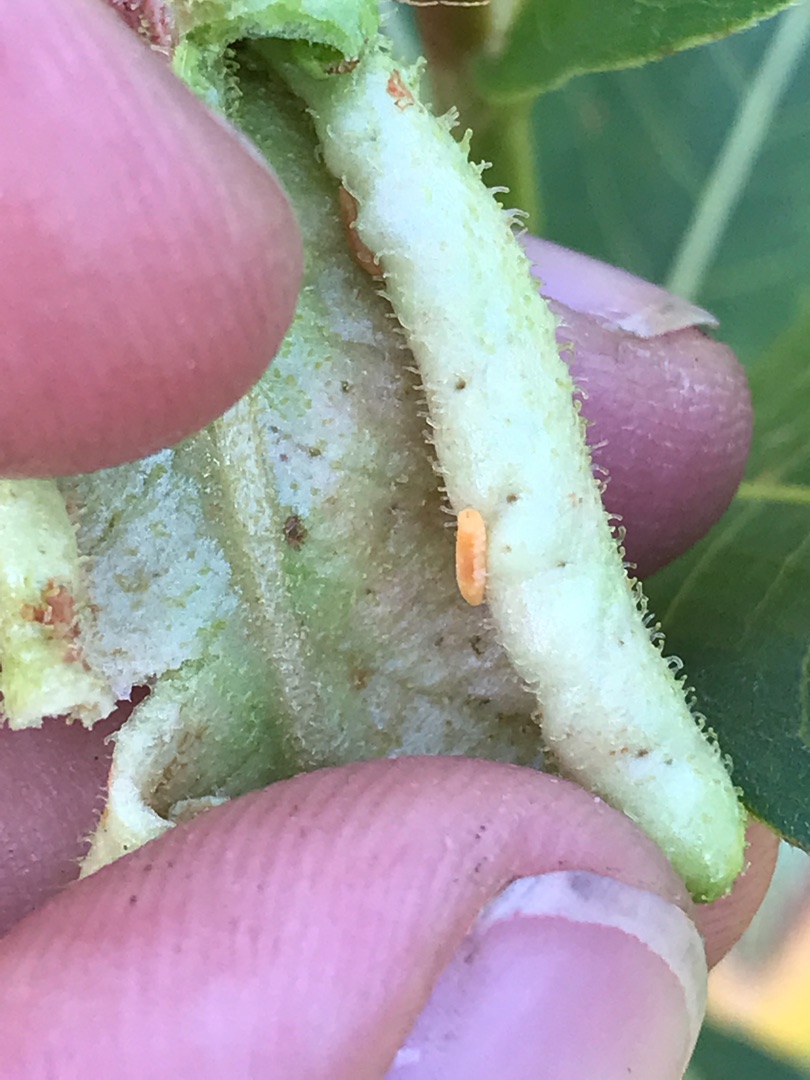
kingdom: Animalia
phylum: Arthropoda
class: Insecta
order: Diptera
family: Cecidomyiidae
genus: Wachtliella
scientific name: Wachtliella persicariae
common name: Pileurtgalmyg
